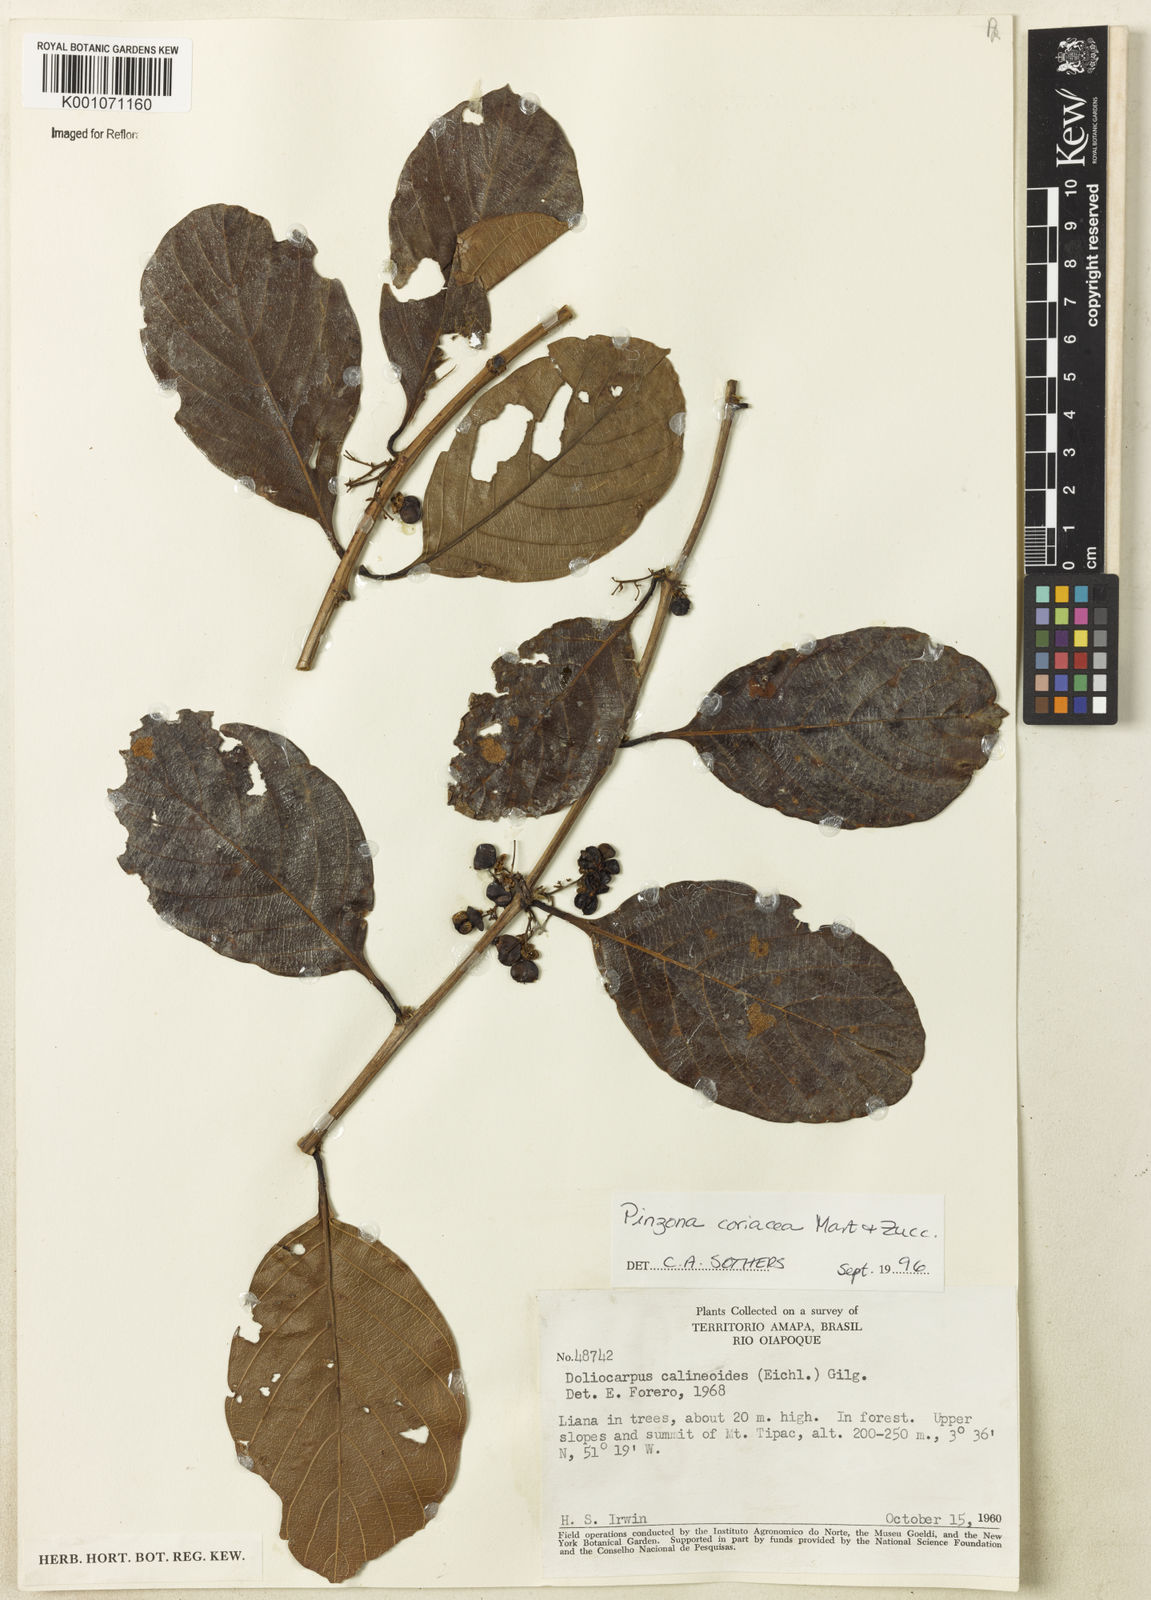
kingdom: Plantae
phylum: Tracheophyta
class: Magnoliopsida
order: Dilleniales
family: Dilleniaceae
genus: Pinzona
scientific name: Pinzona coriacea
